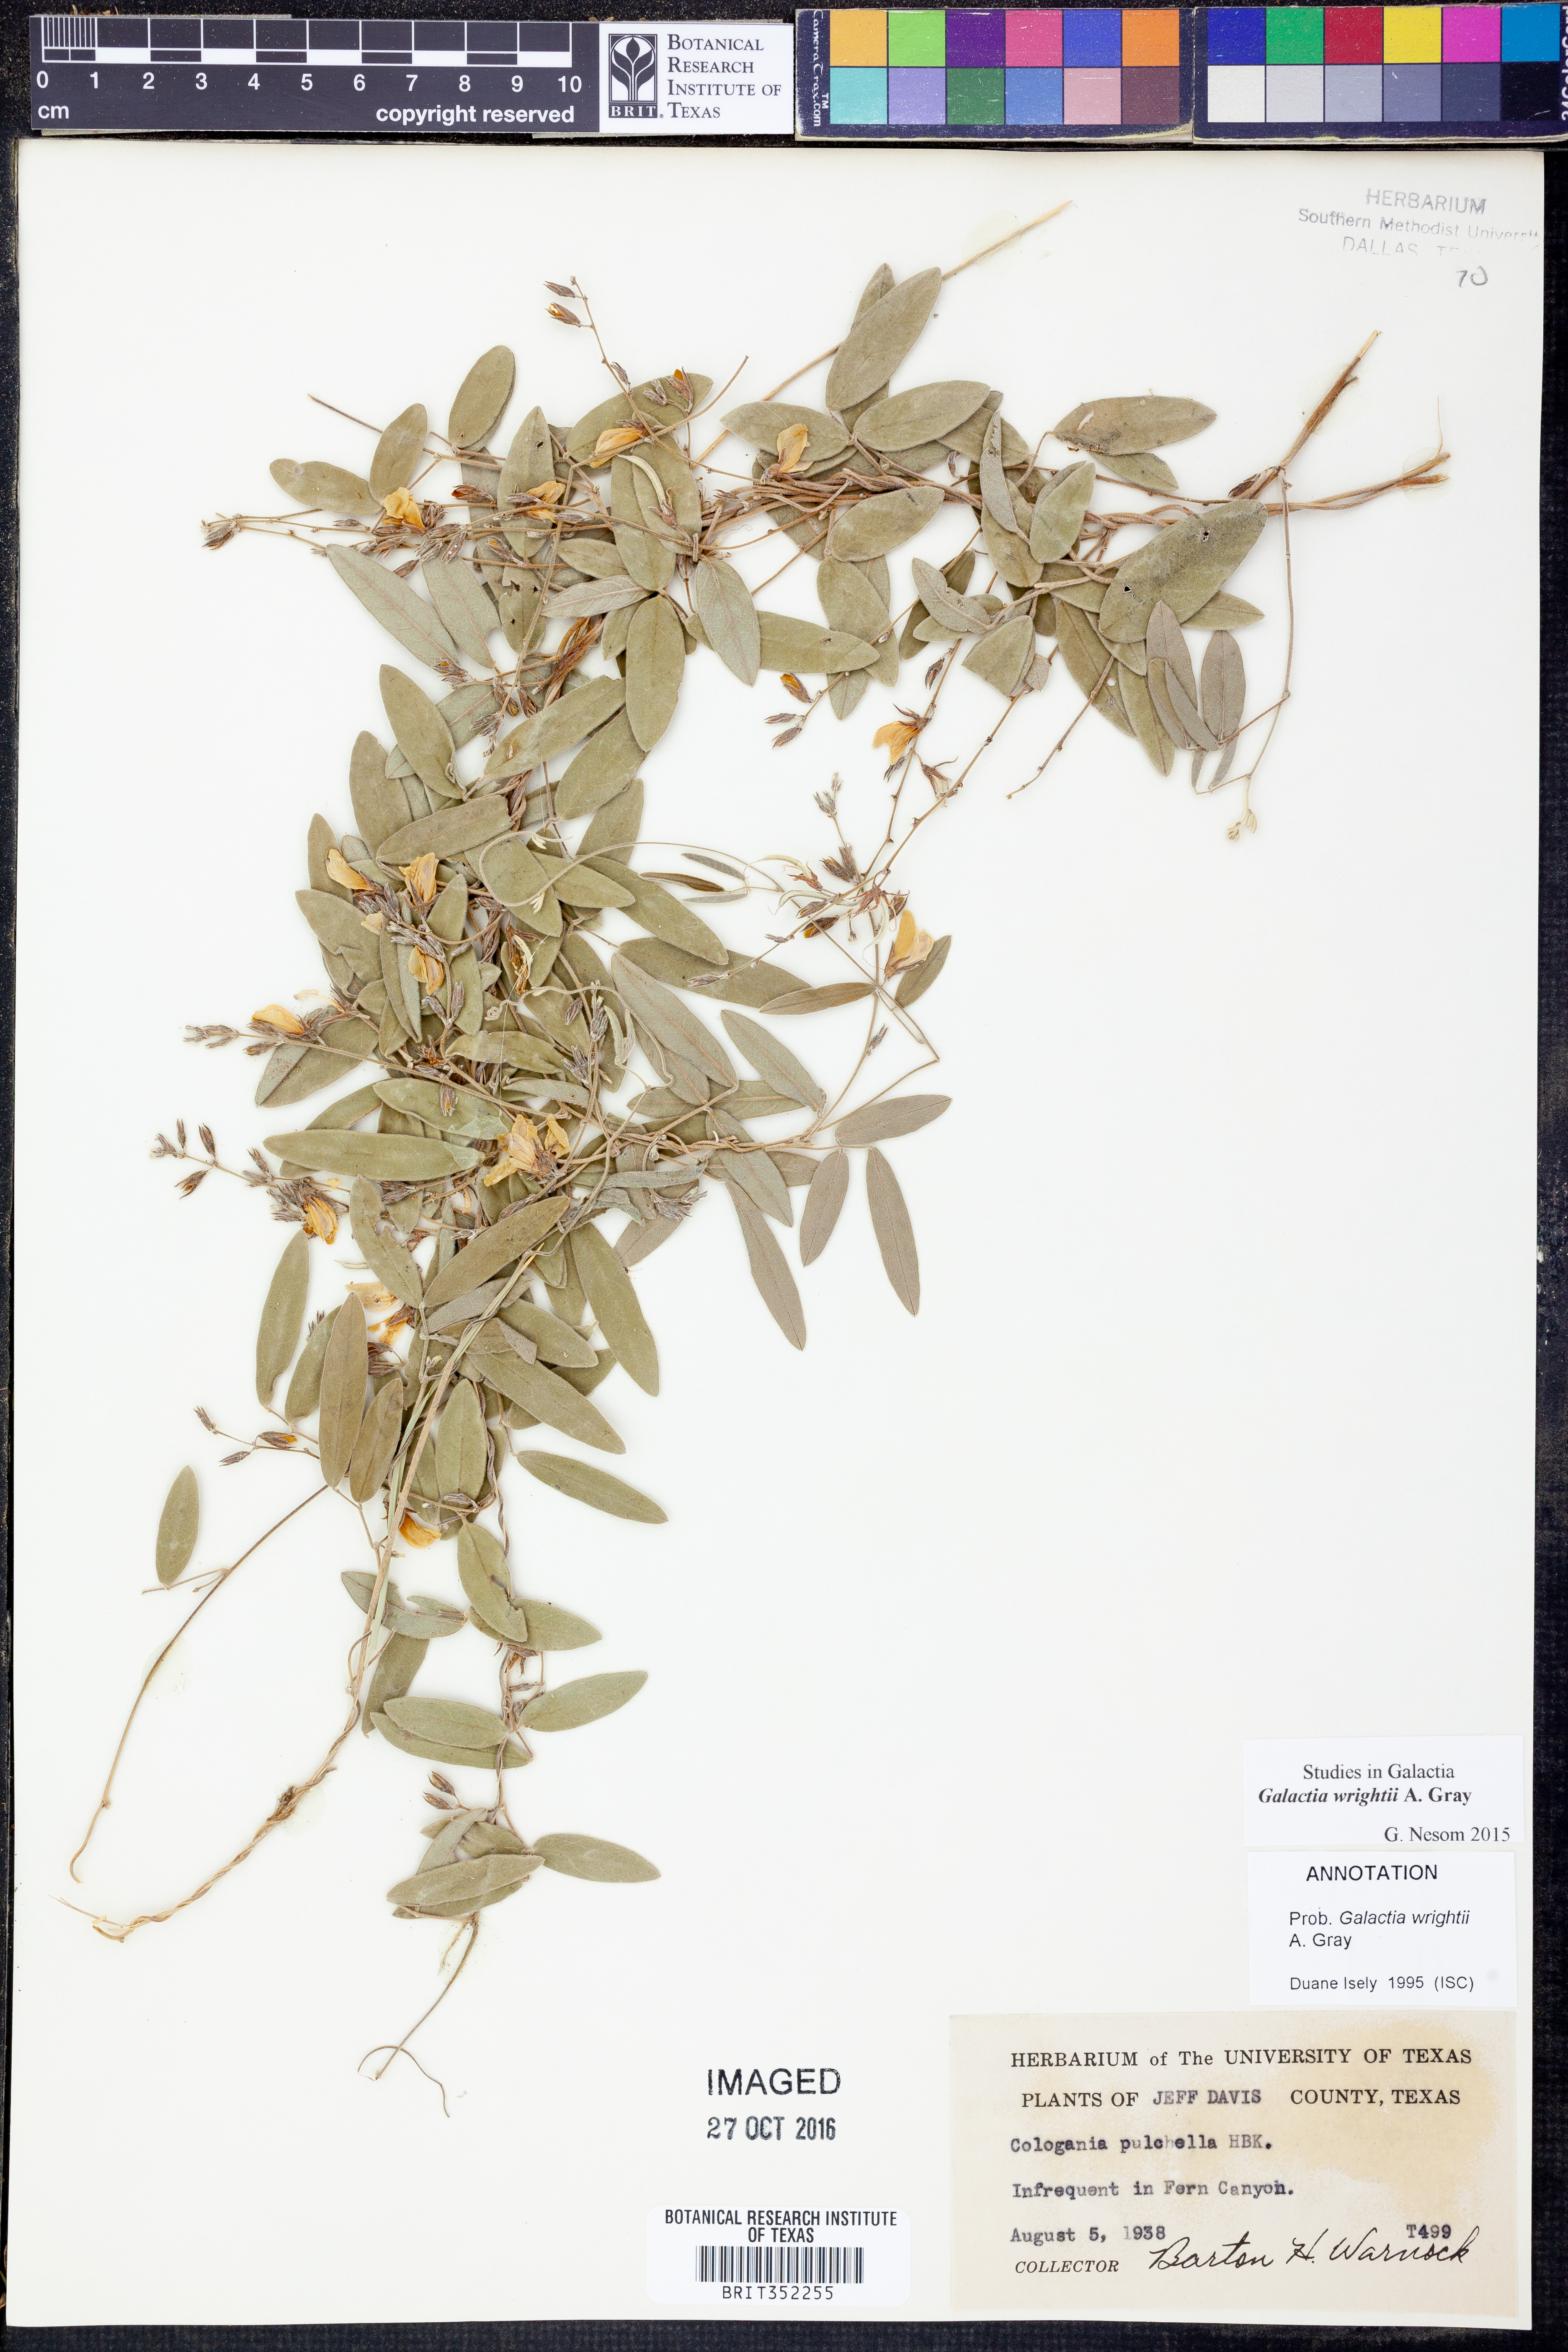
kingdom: Plantae
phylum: Tracheophyta
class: Magnoliopsida
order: Fabales
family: Fabaceae
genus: Galactia
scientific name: Galactia wrightii
